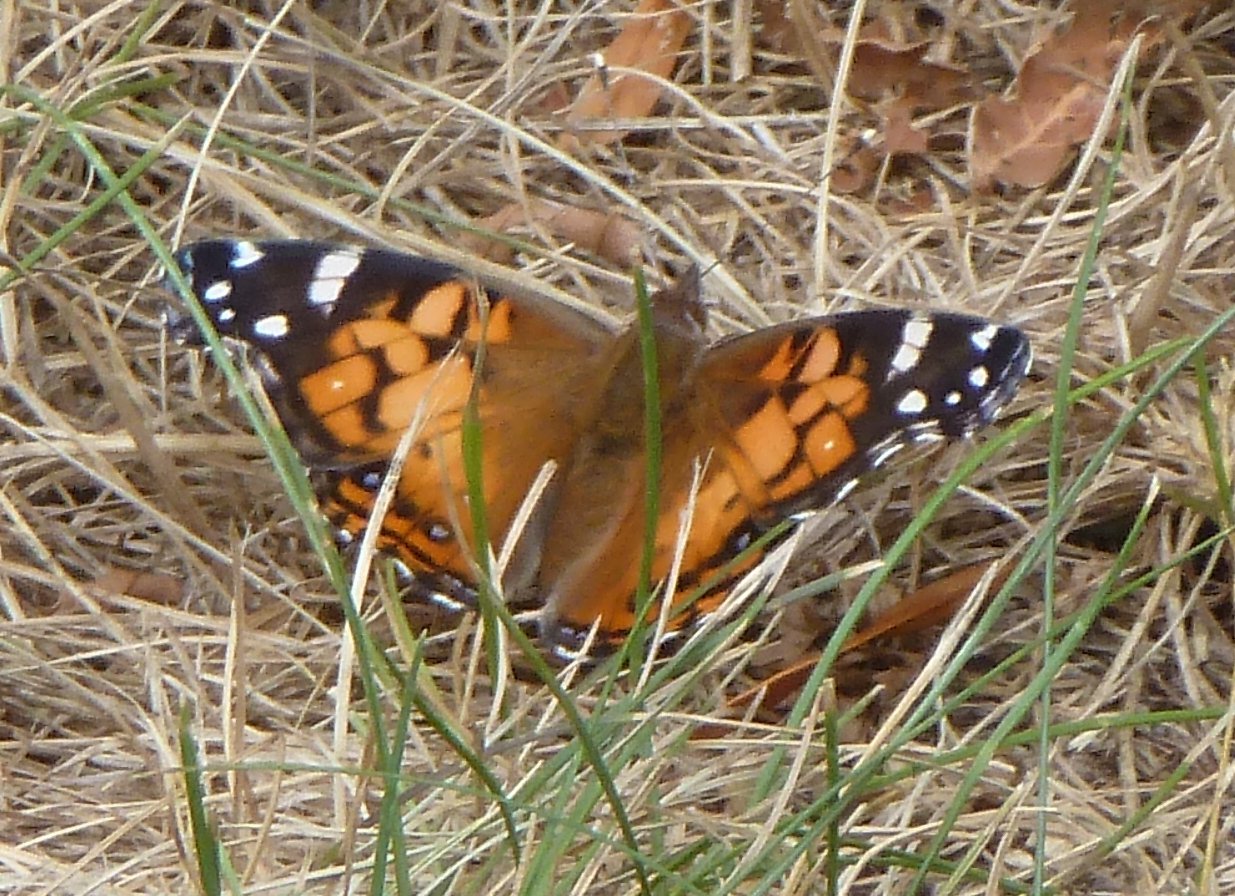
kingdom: Animalia
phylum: Arthropoda
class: Insecta
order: Lepidoptera
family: Nymphalidae
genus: Vanessa
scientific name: Vanessa virginiensis
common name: American Lady
